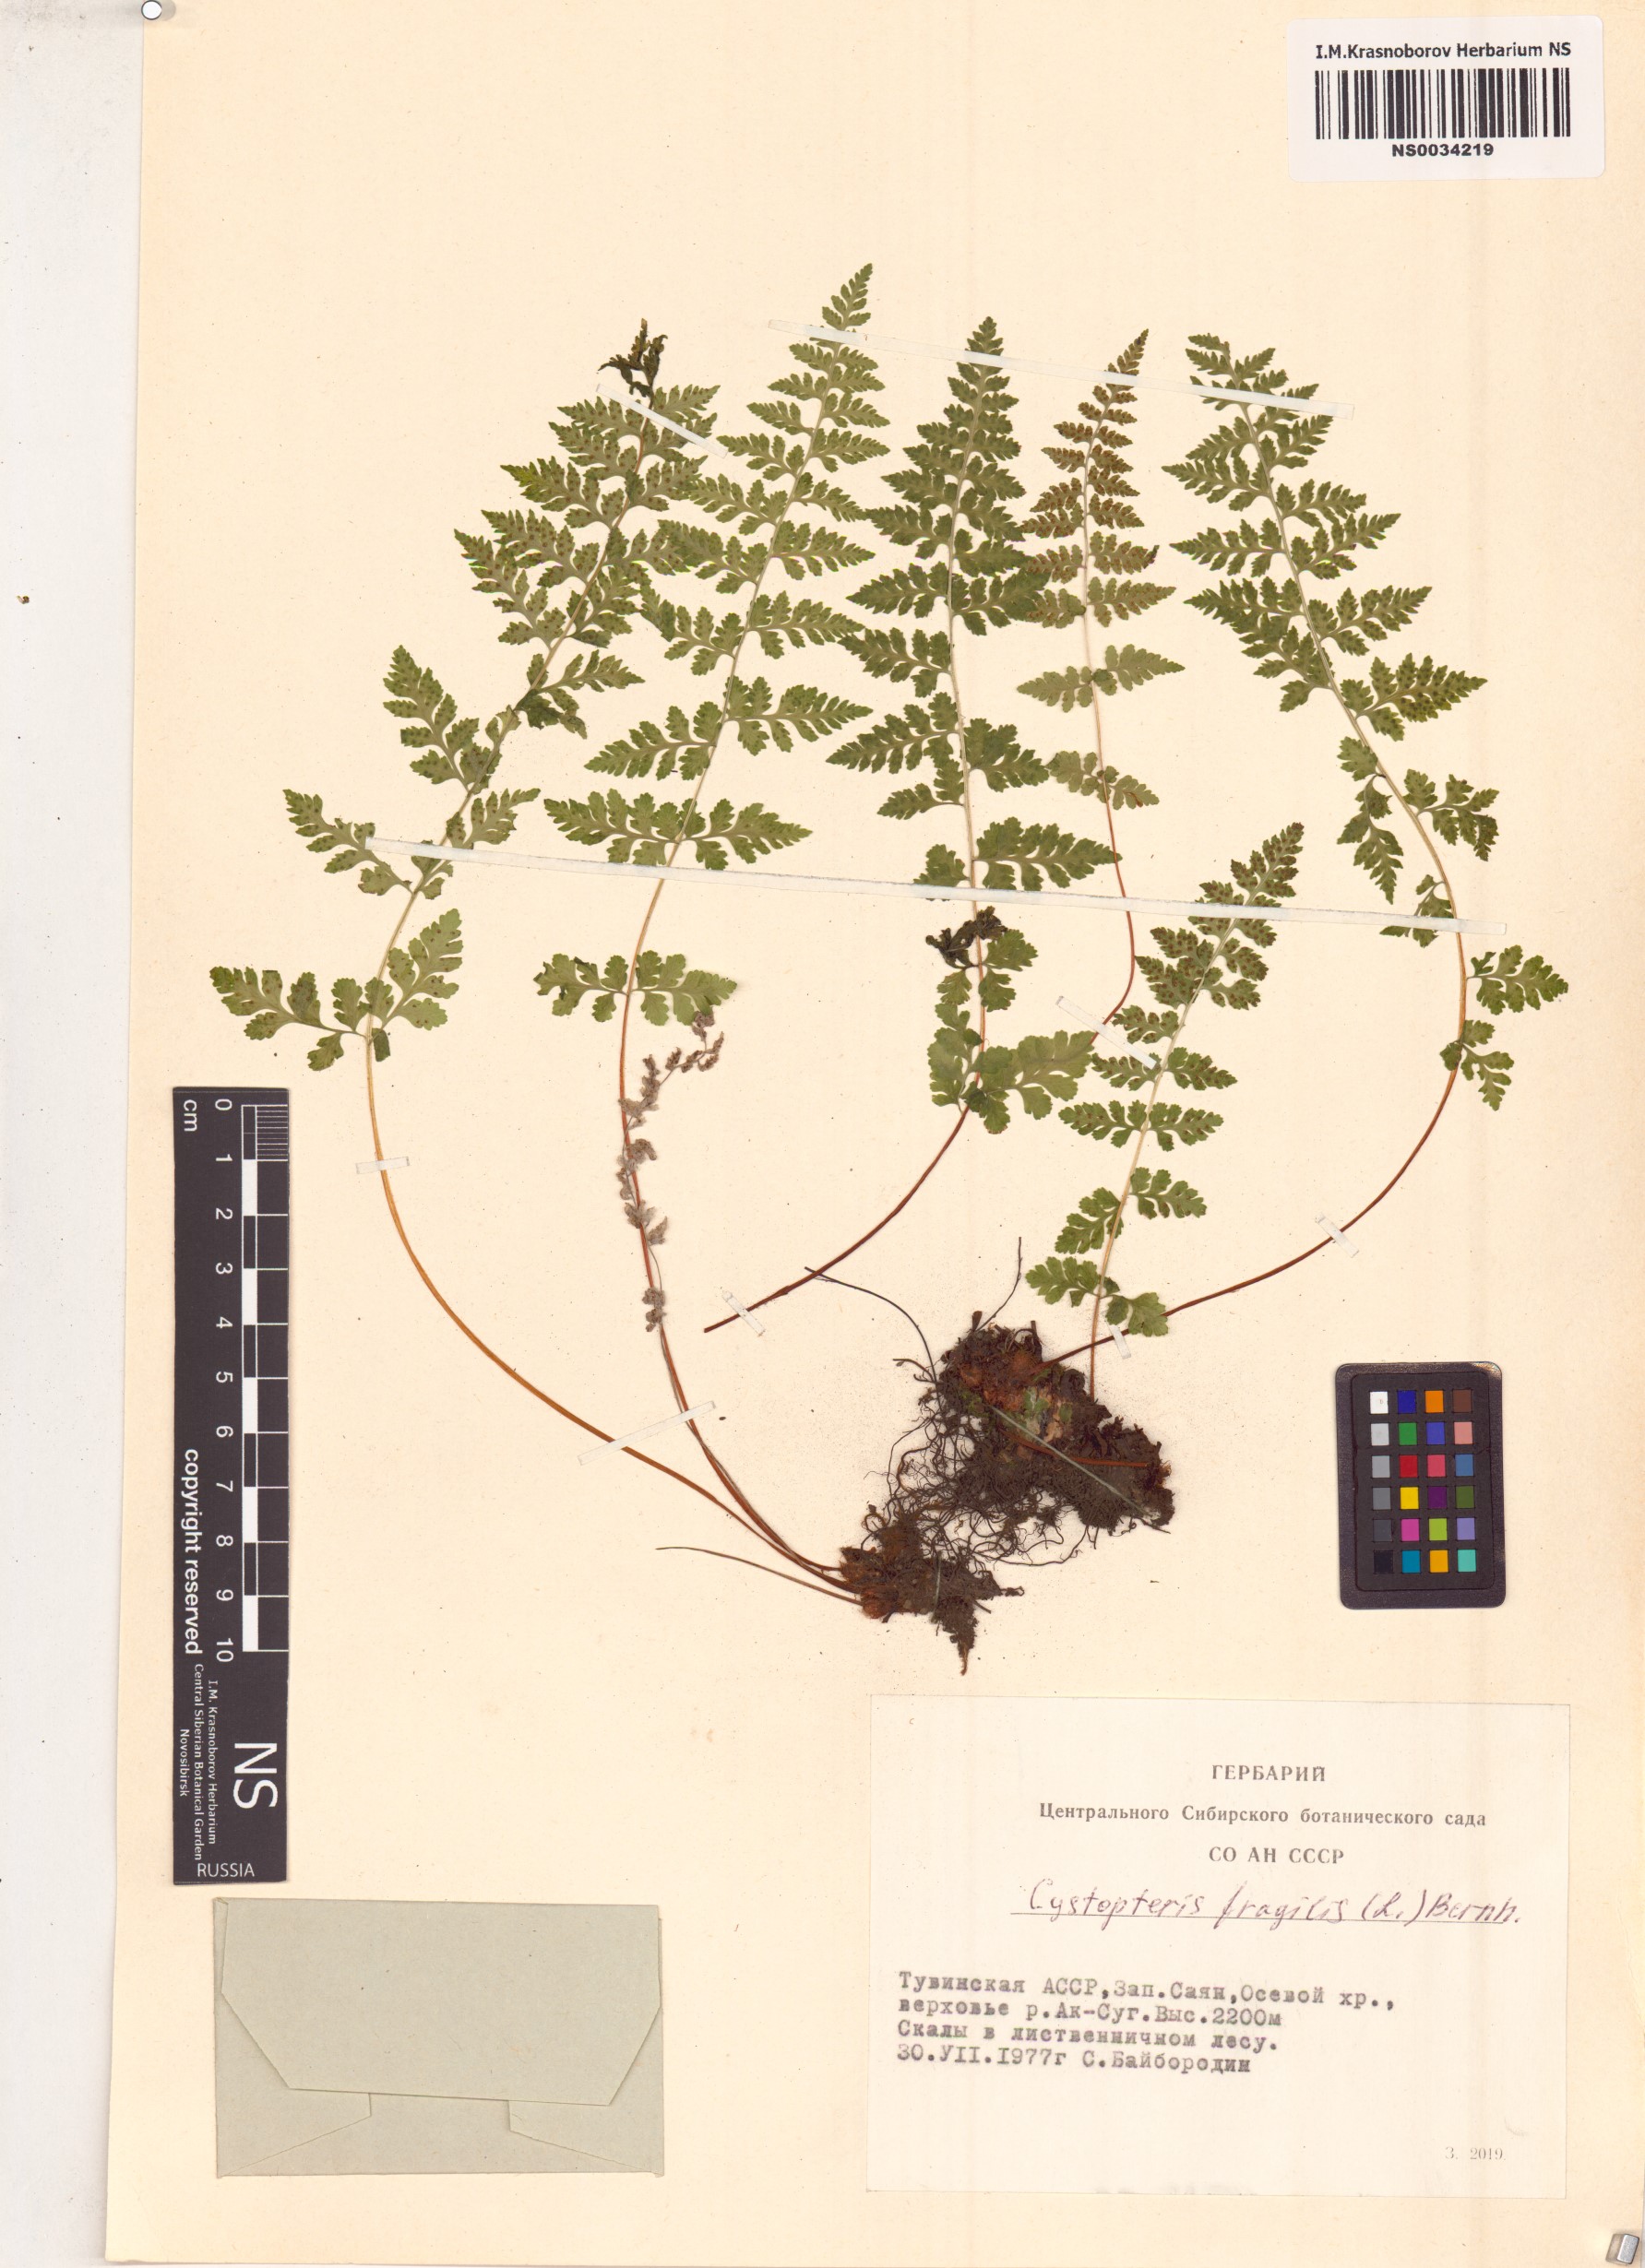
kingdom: Plantae
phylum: Tracheophyta
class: Polypodiopsida
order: Polypodiales
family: Cystopteridaceae
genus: Cystopteris
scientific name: Cystopteris fragilis
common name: Brittle bladder fern
